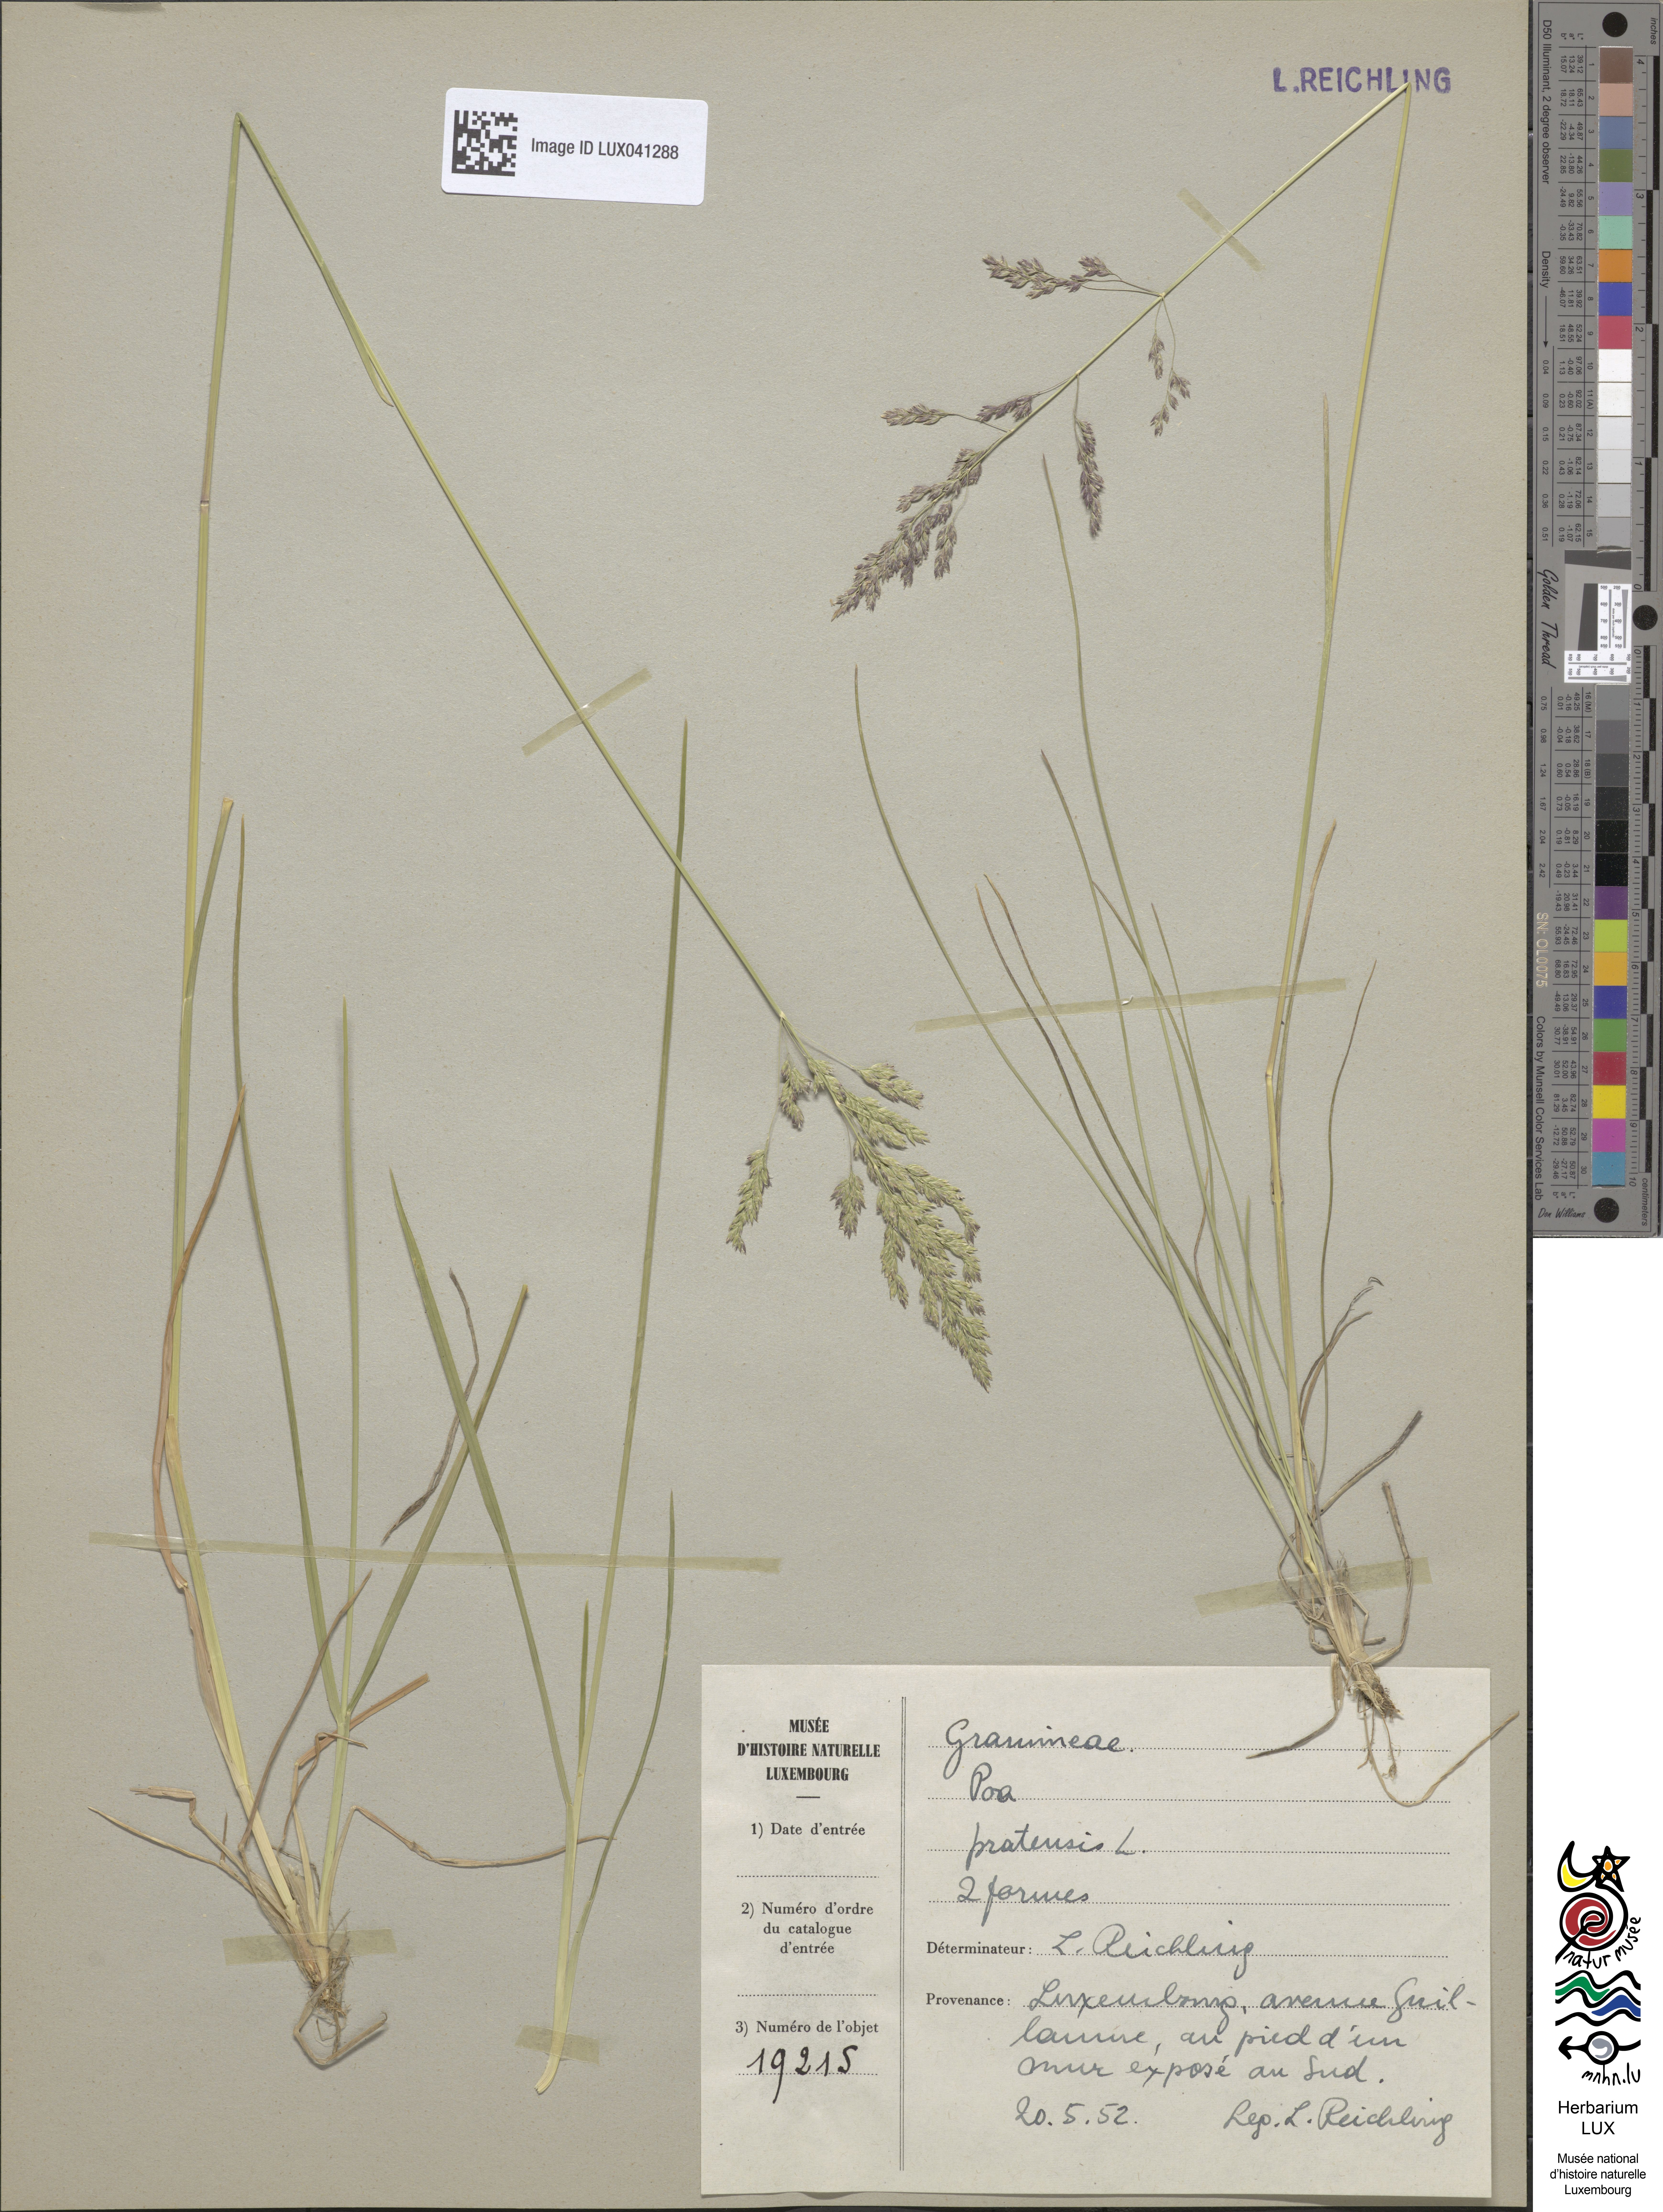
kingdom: Plantae
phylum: Tracheophyta
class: Liliopsida
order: Poales
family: Poaceae
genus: Poa
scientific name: Poa pratensis
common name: Kentucky bluegrass
